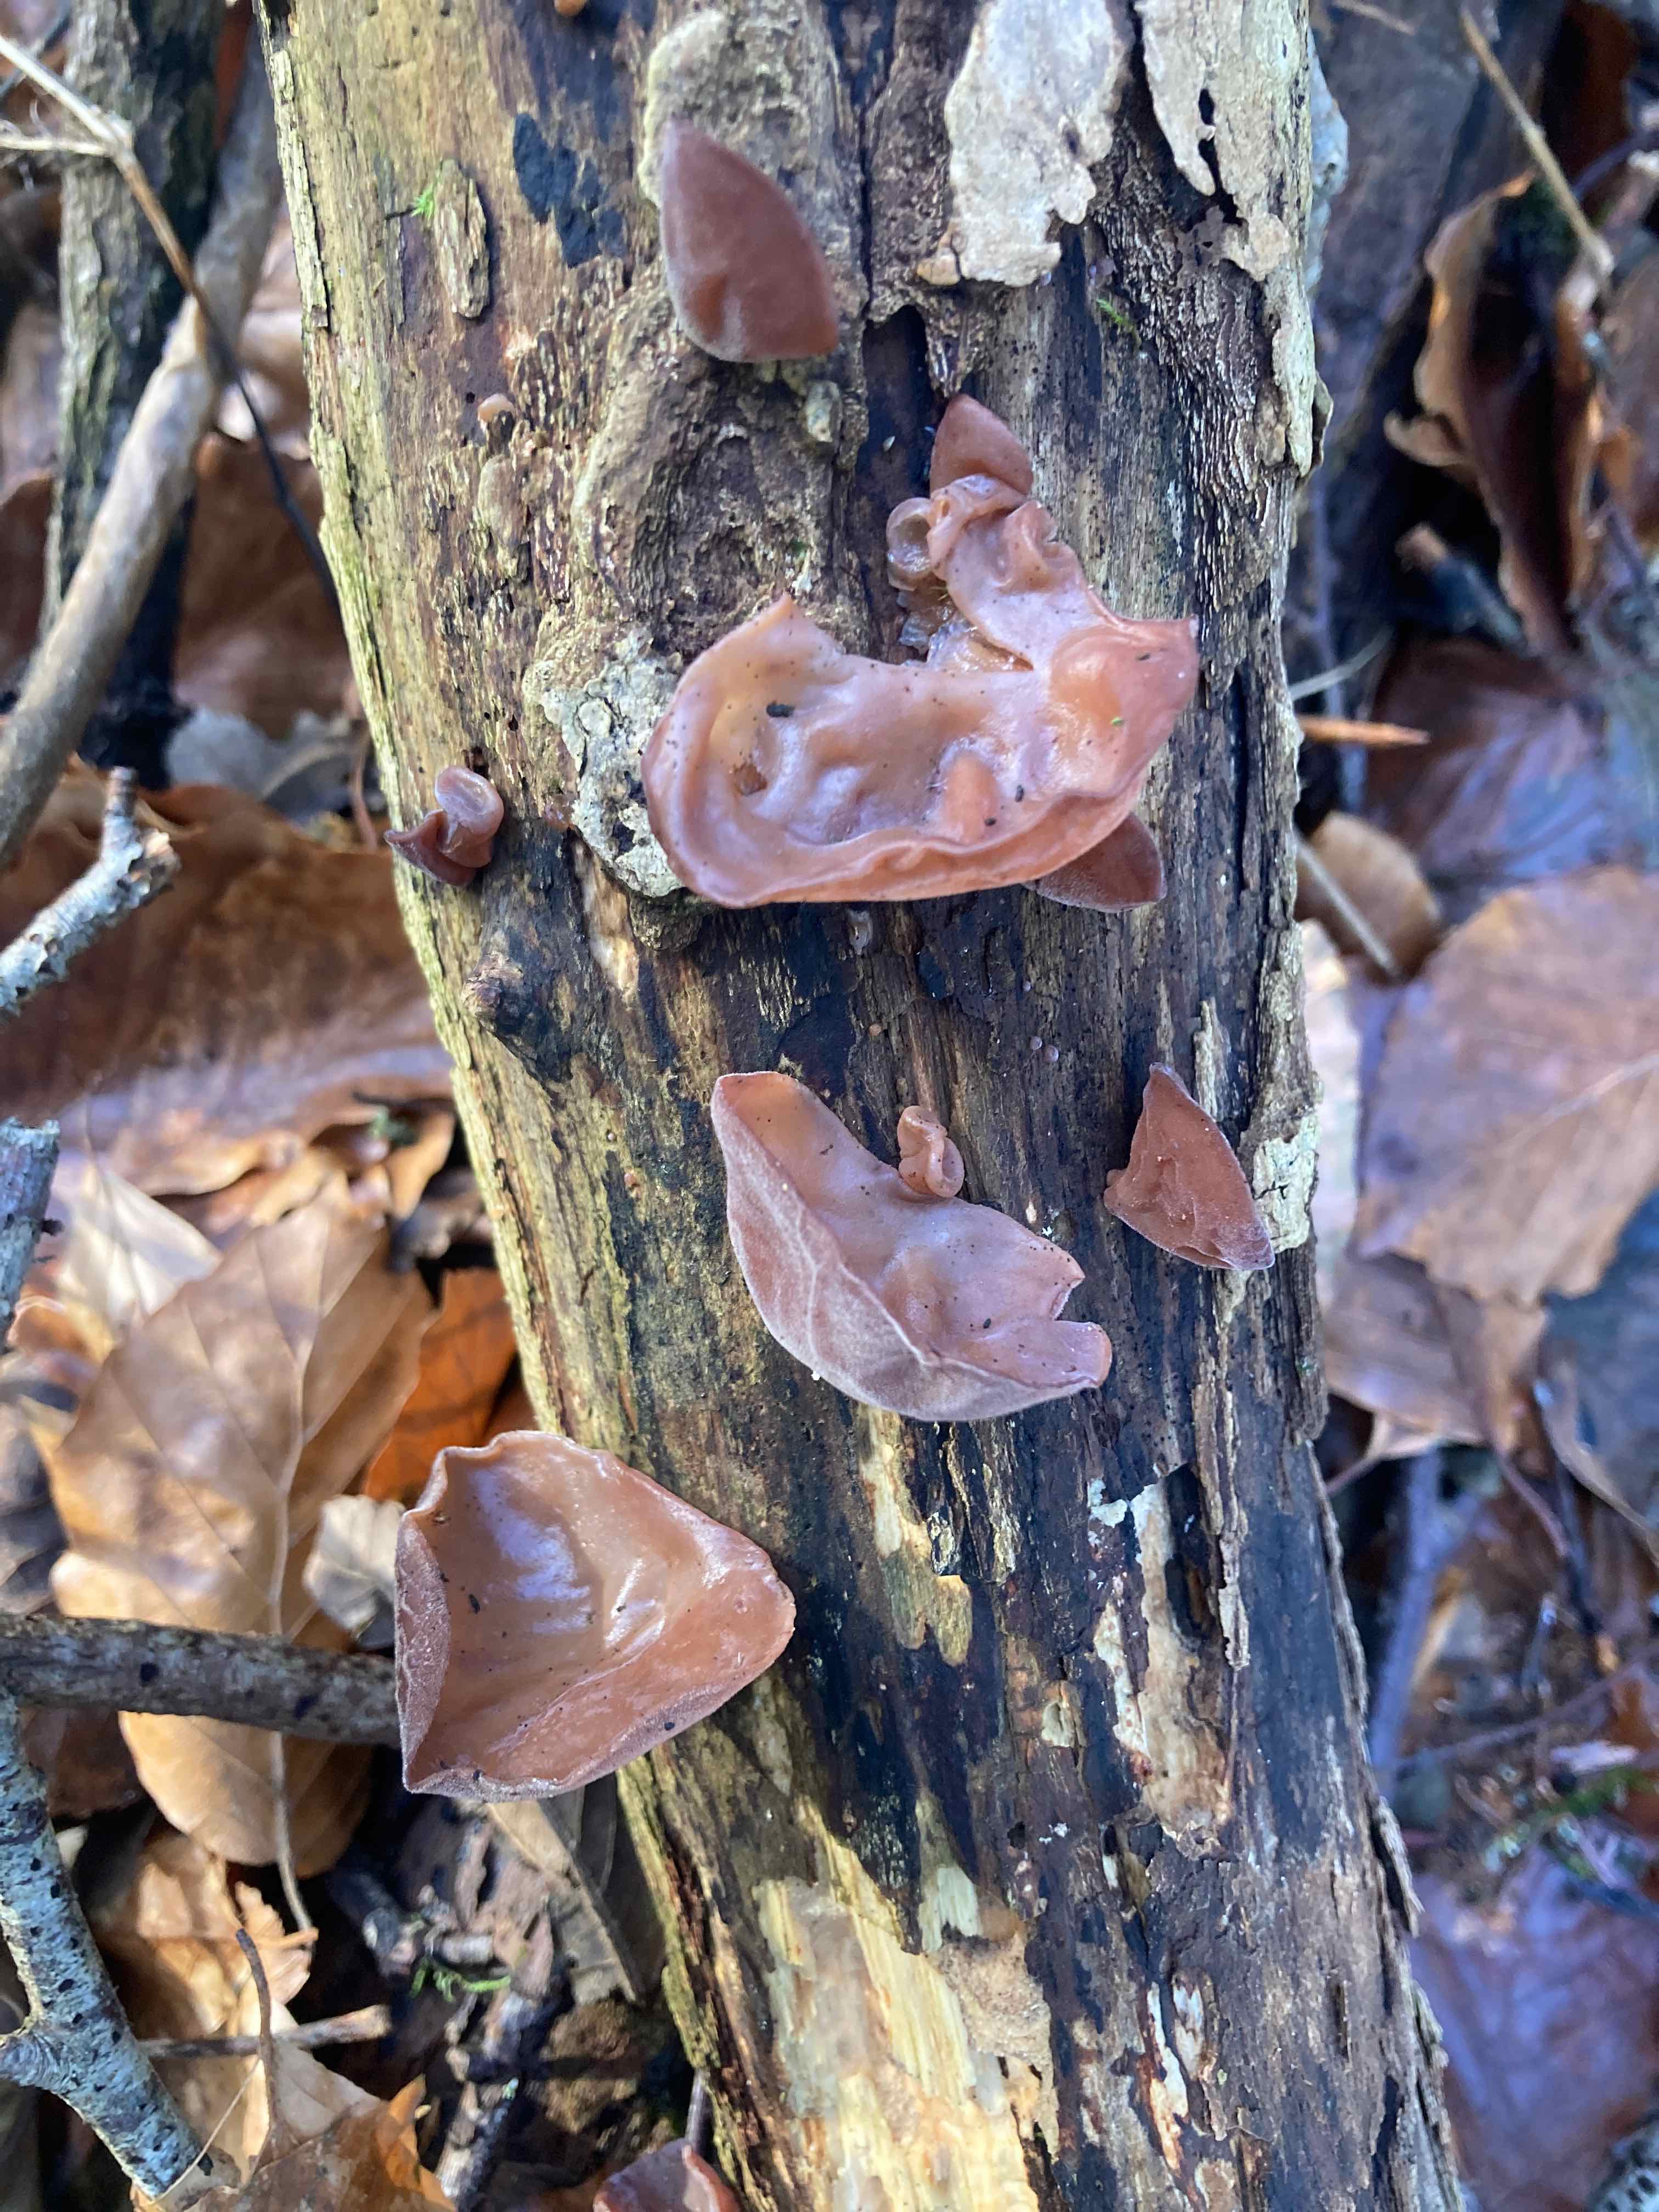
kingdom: Fungi
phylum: Basidiomycota
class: Agaricomycetes
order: Auriculariales
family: Auriculariaceae
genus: Auricularia
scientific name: Auricularia auricula-judae
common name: almindelig judasøre
